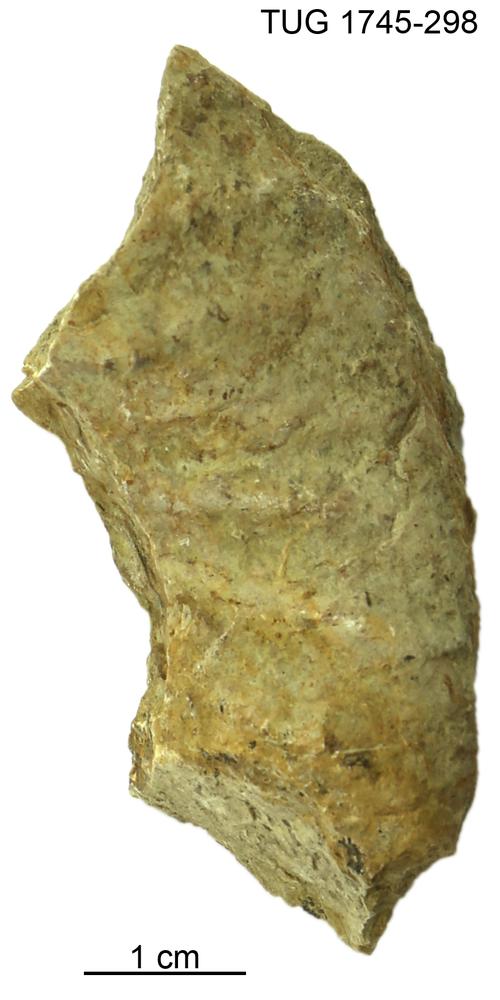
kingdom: Animalia
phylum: Mollusca
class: Cephalopoda
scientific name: Cephalopoda
